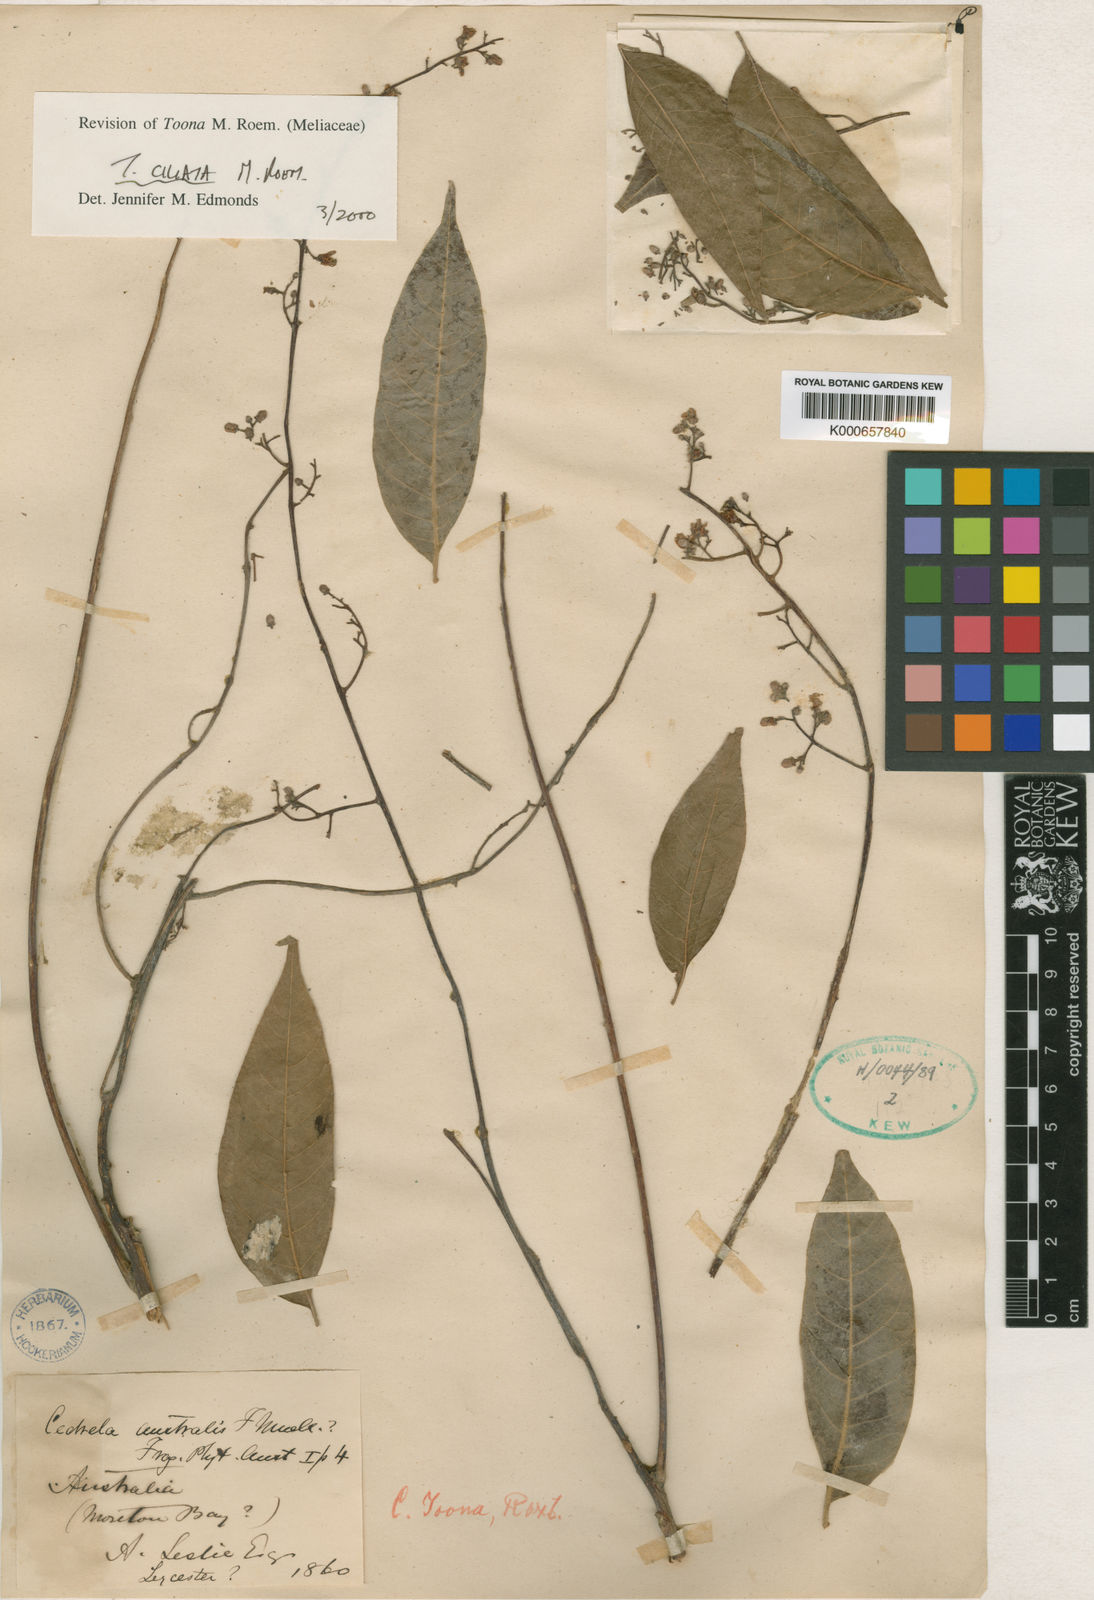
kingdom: Plantae
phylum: Tracheophyta
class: Magnoliopsida
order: Sapindales
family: Meliaceae
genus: Toona
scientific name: Toona ciliata
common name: Australian redcedar
